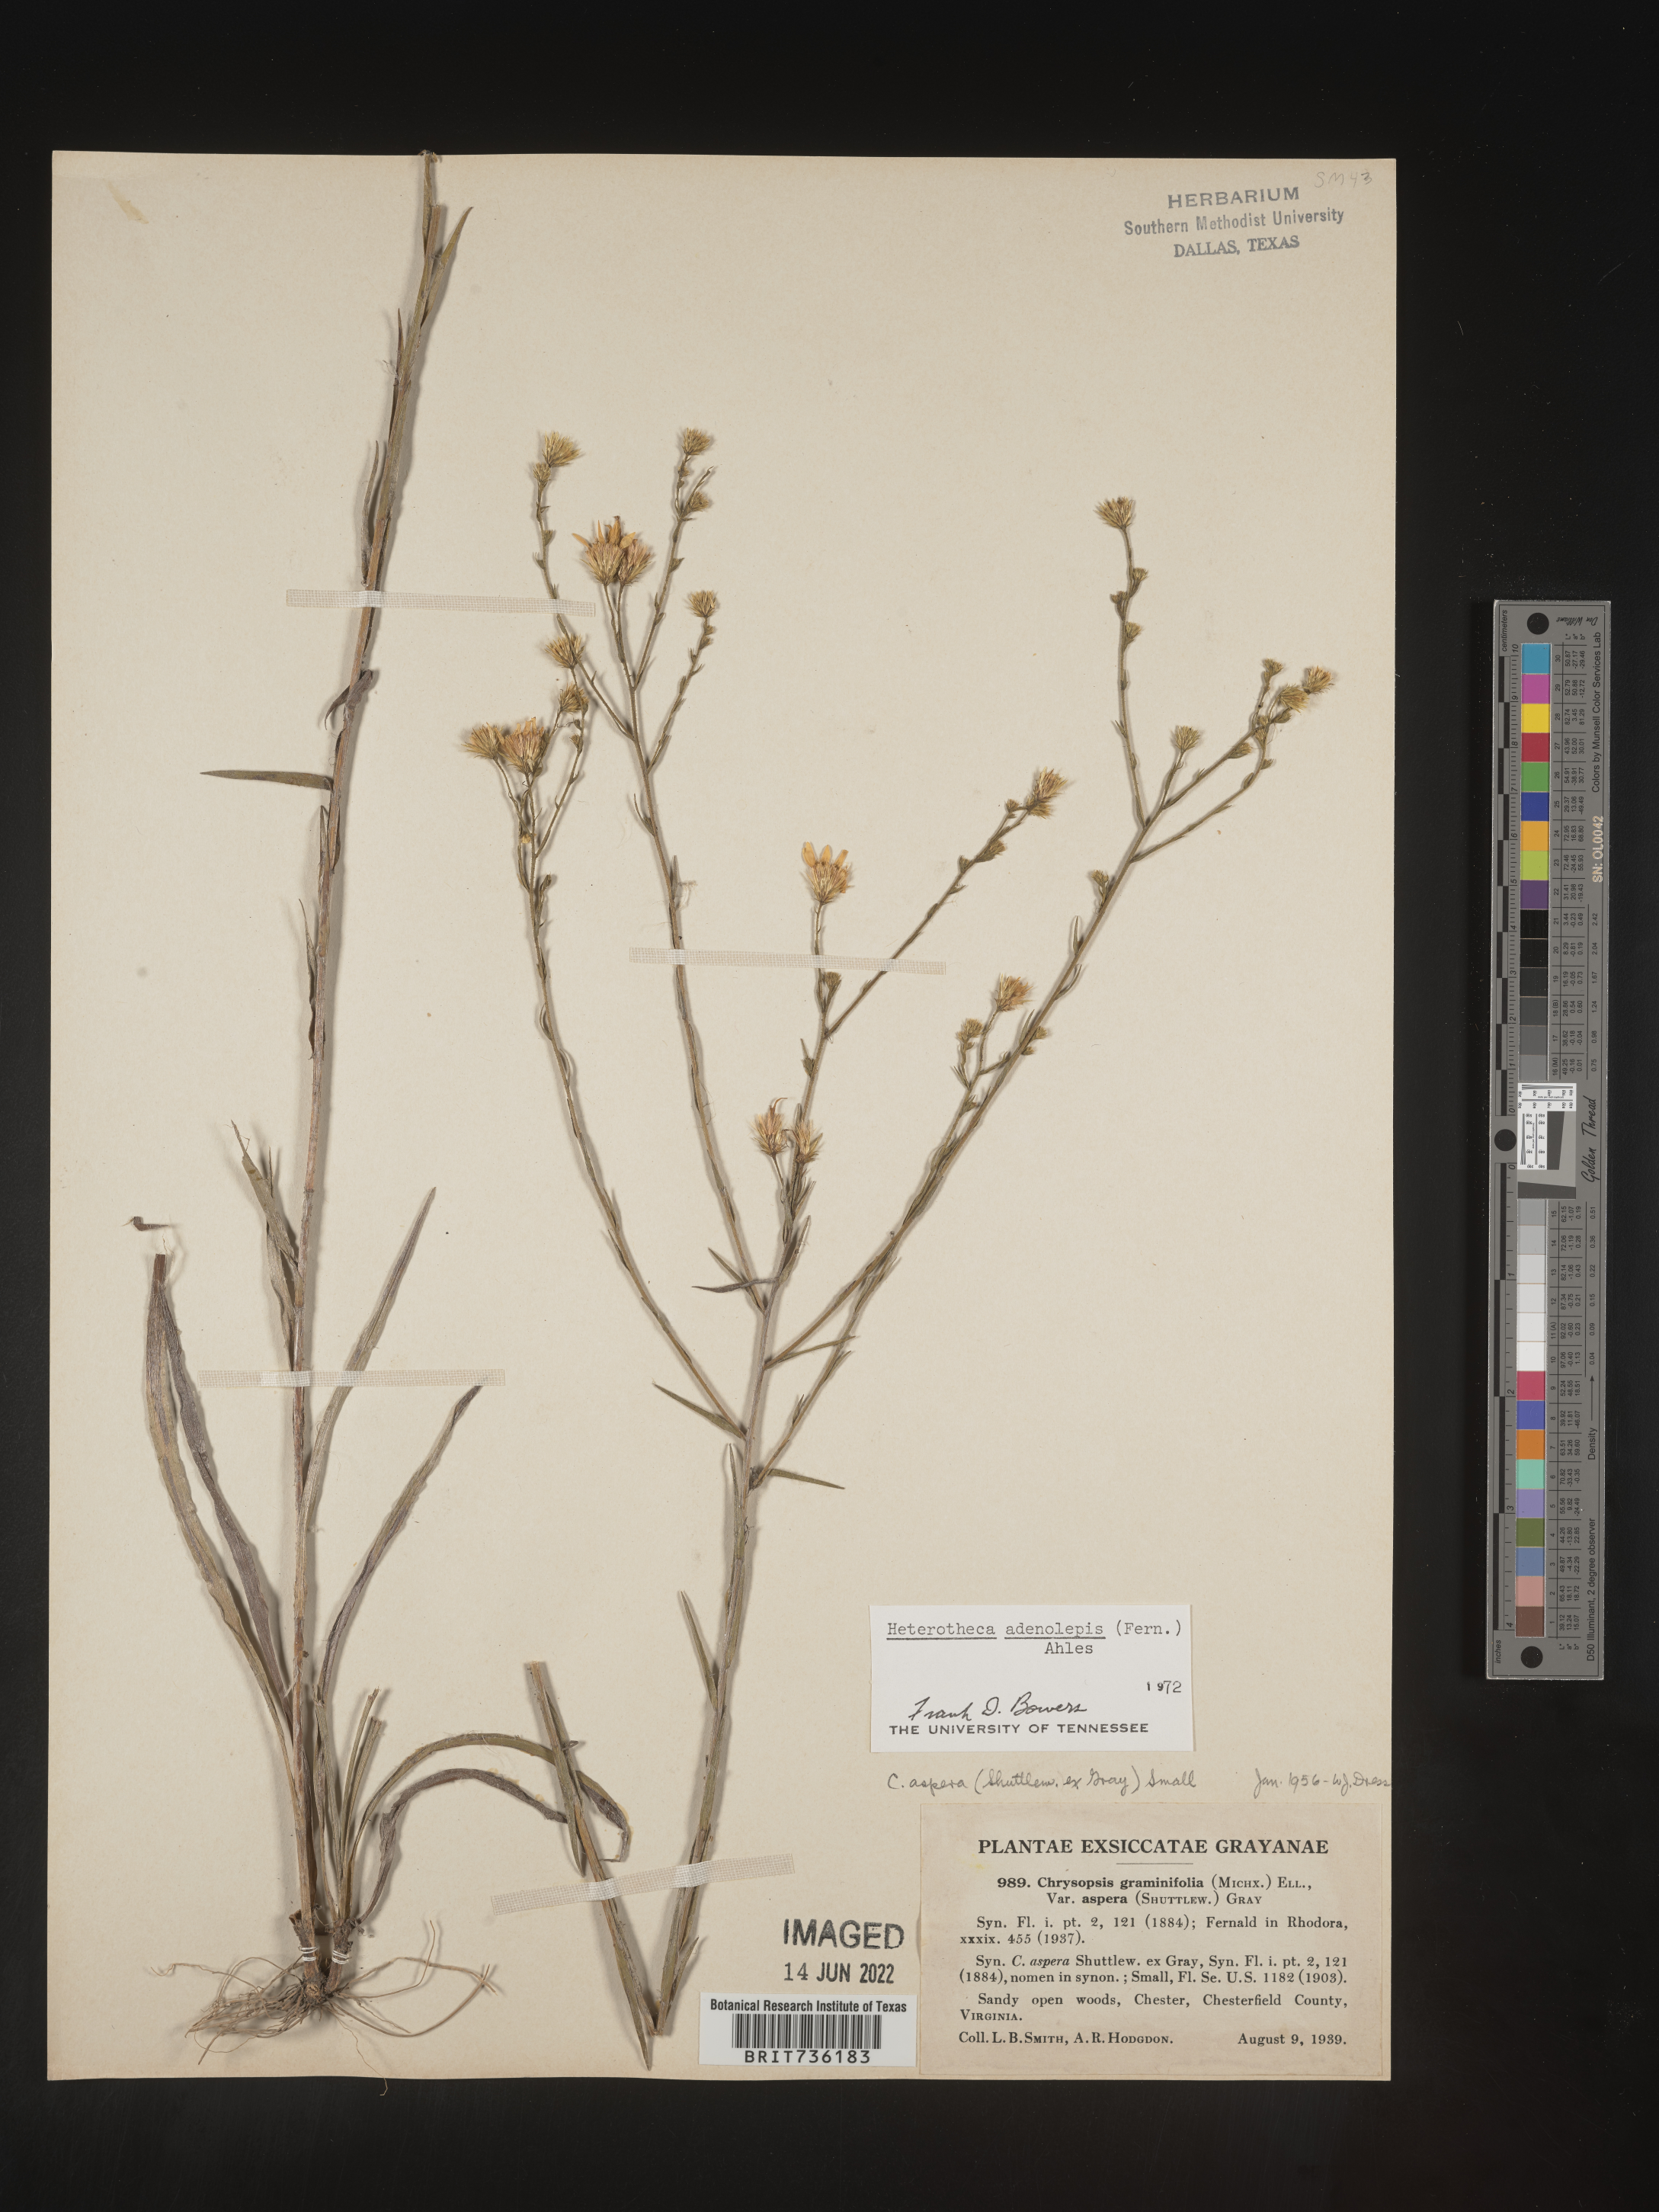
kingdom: Plantae
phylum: Tracheophyta
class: Magnoliopsida
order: Asterales
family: Asteraceae
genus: Pityopsis
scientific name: Pityopsis aspera
